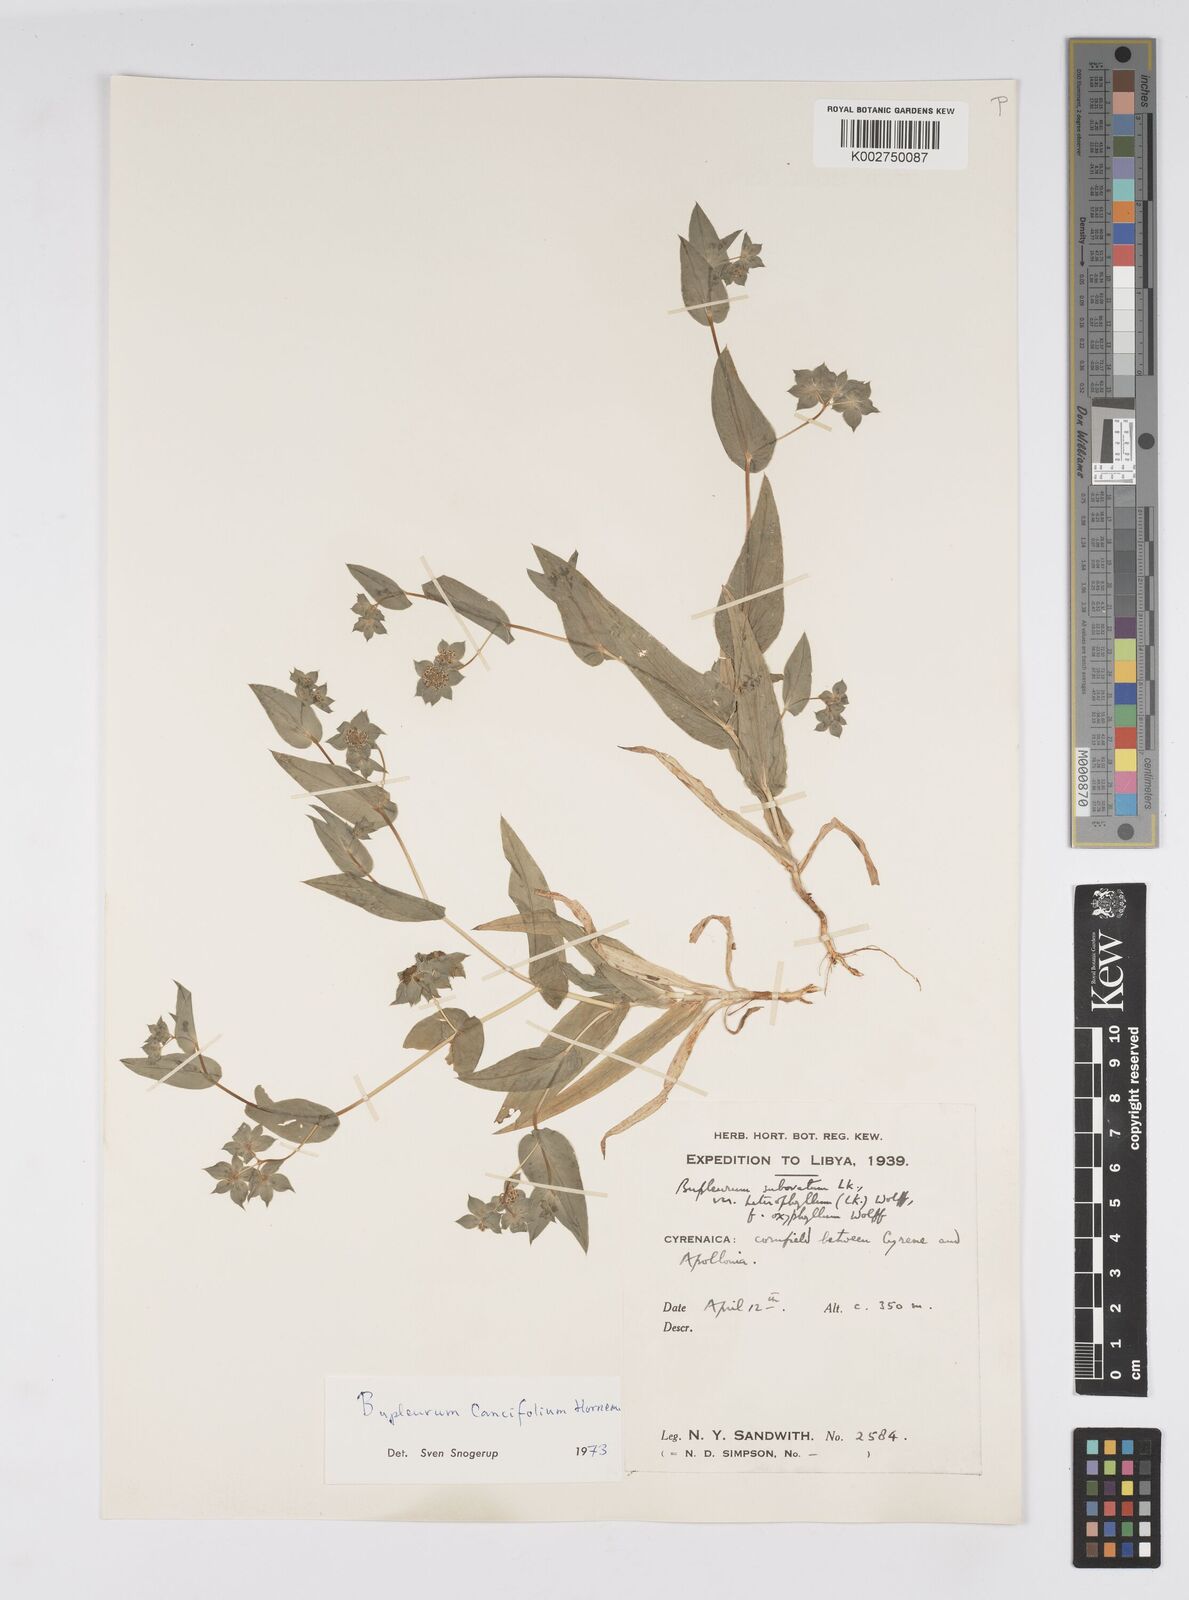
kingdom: Plantae
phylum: Tracheophyta
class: Magnoliopsida
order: Apiales
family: Apiaceae
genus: Bupleurum
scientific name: Bupleurum lancifolium
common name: False thorow-wax
